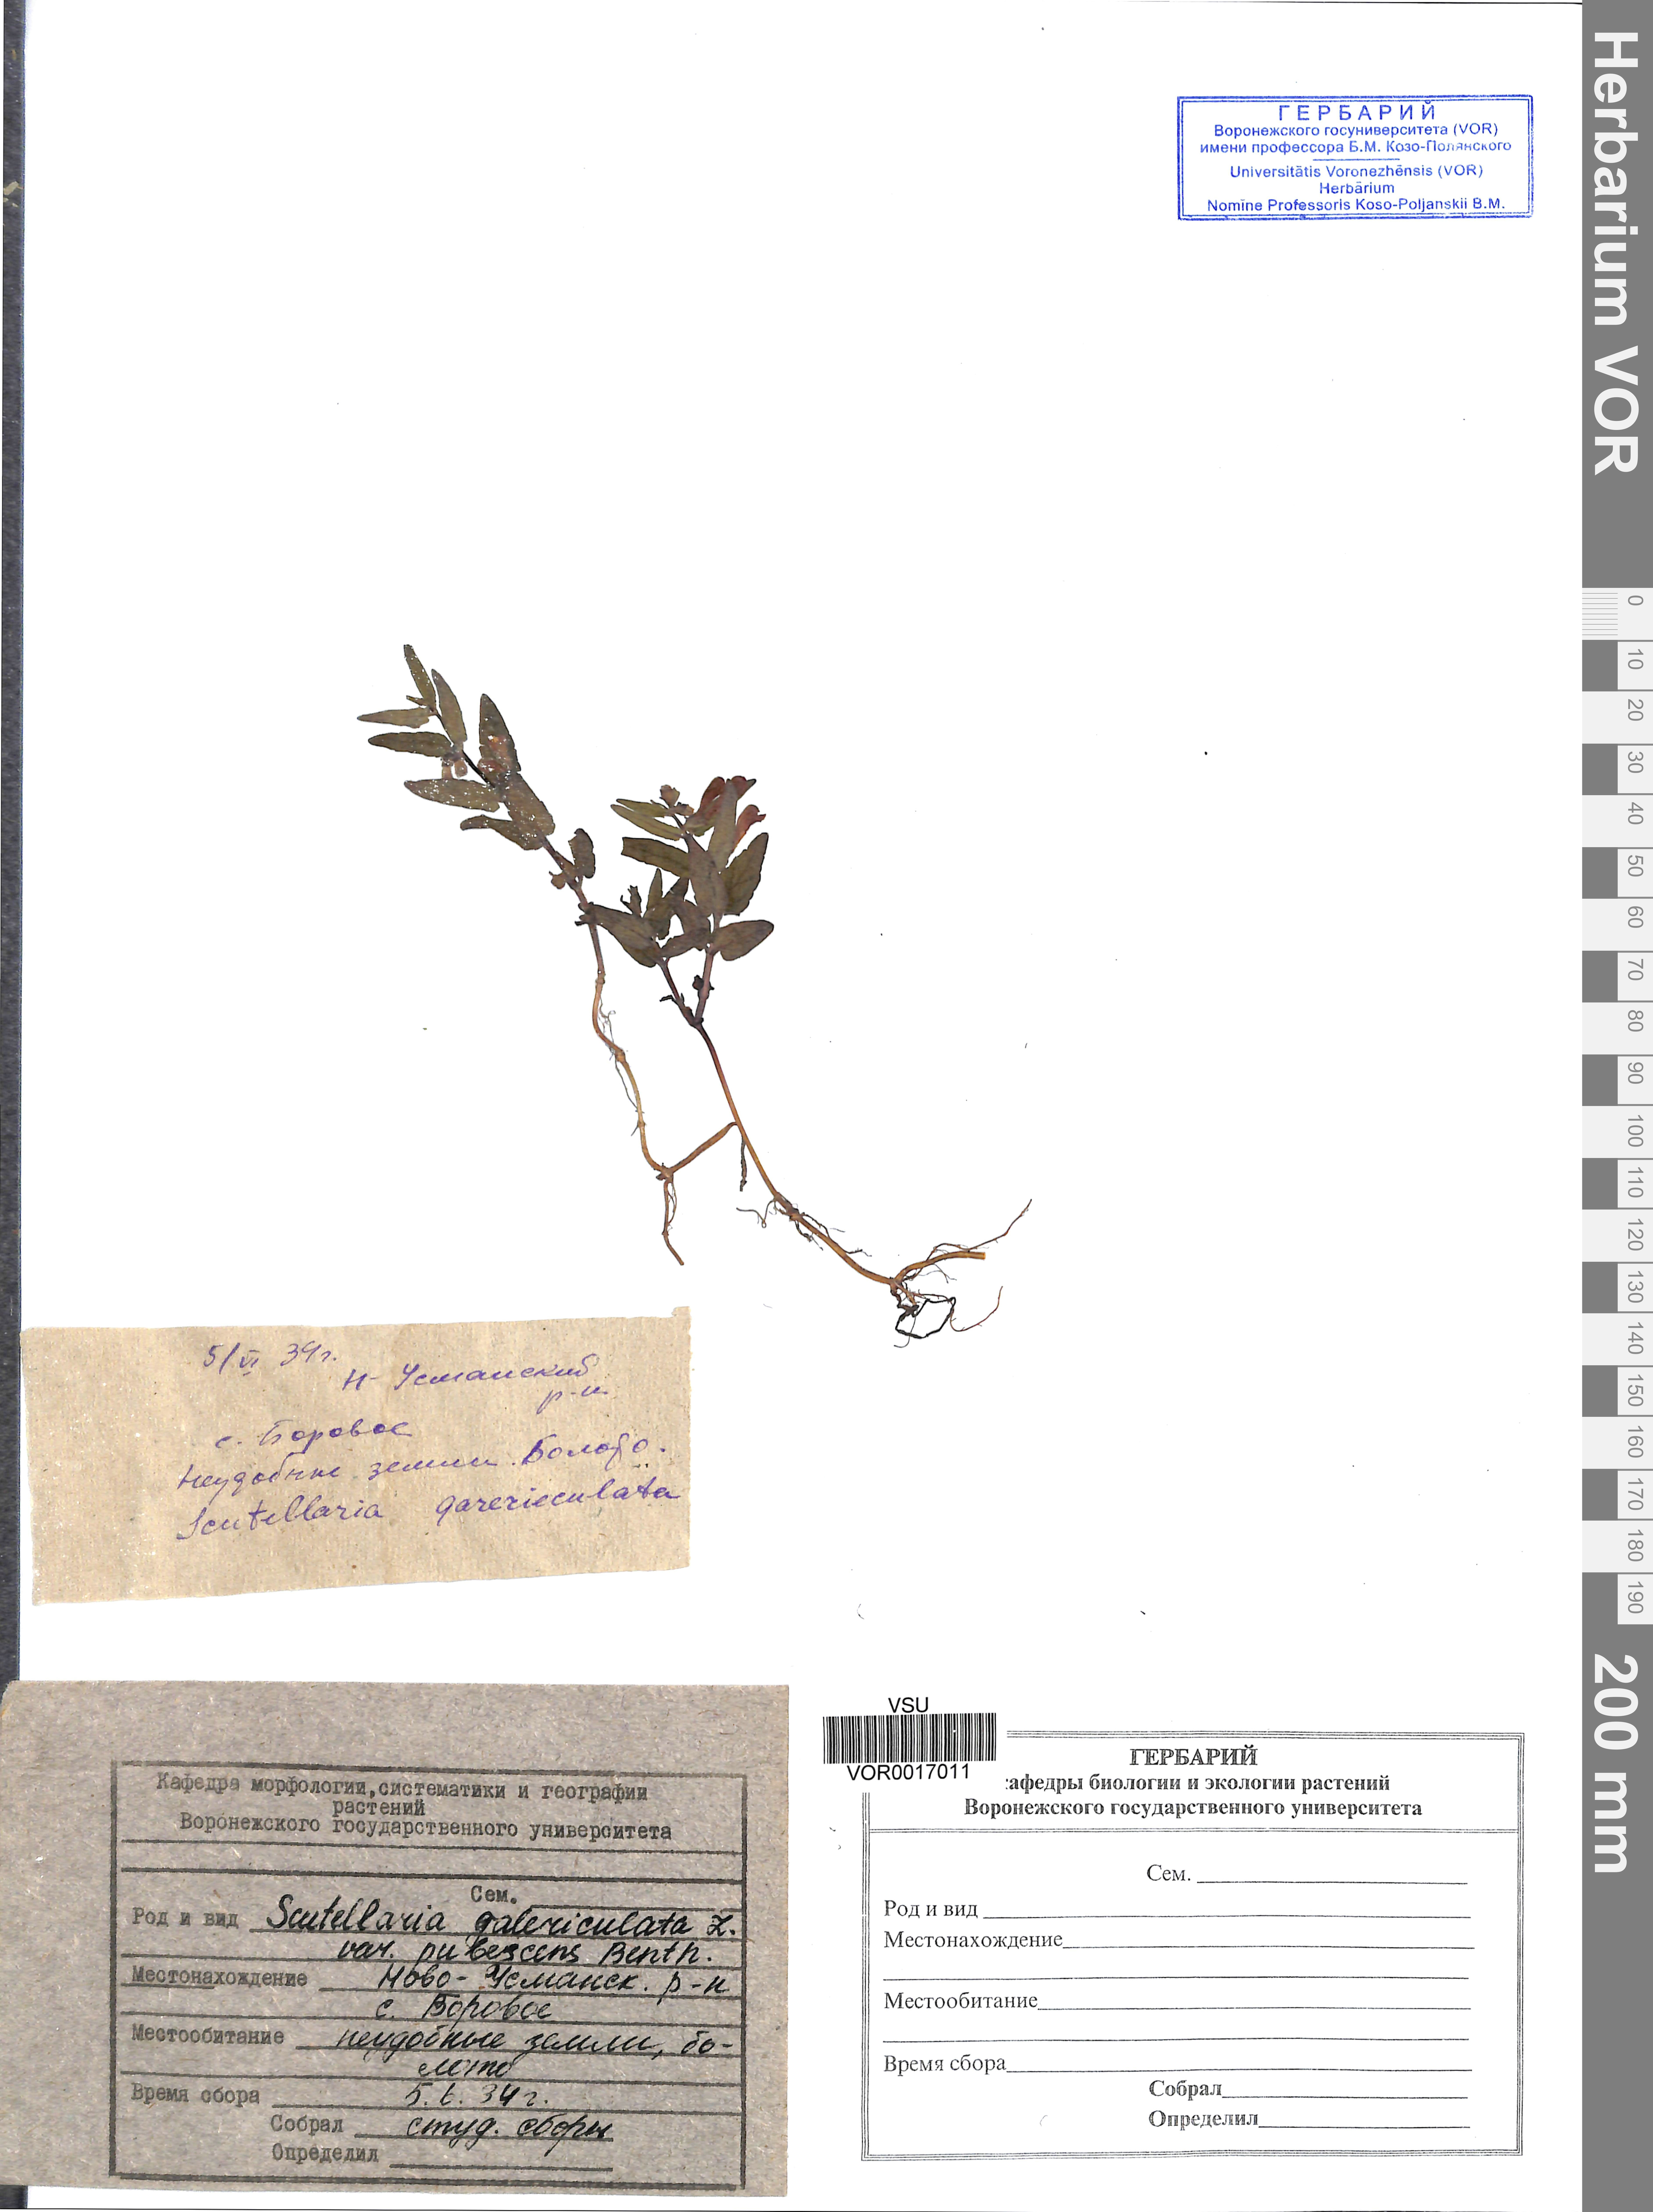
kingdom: Plantae
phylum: Tracheophyta
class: Magnoliopsida
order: Lamiales
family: Lamiaceae
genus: Scutellaria
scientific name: Scutellaria galericulata
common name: Skullcap
